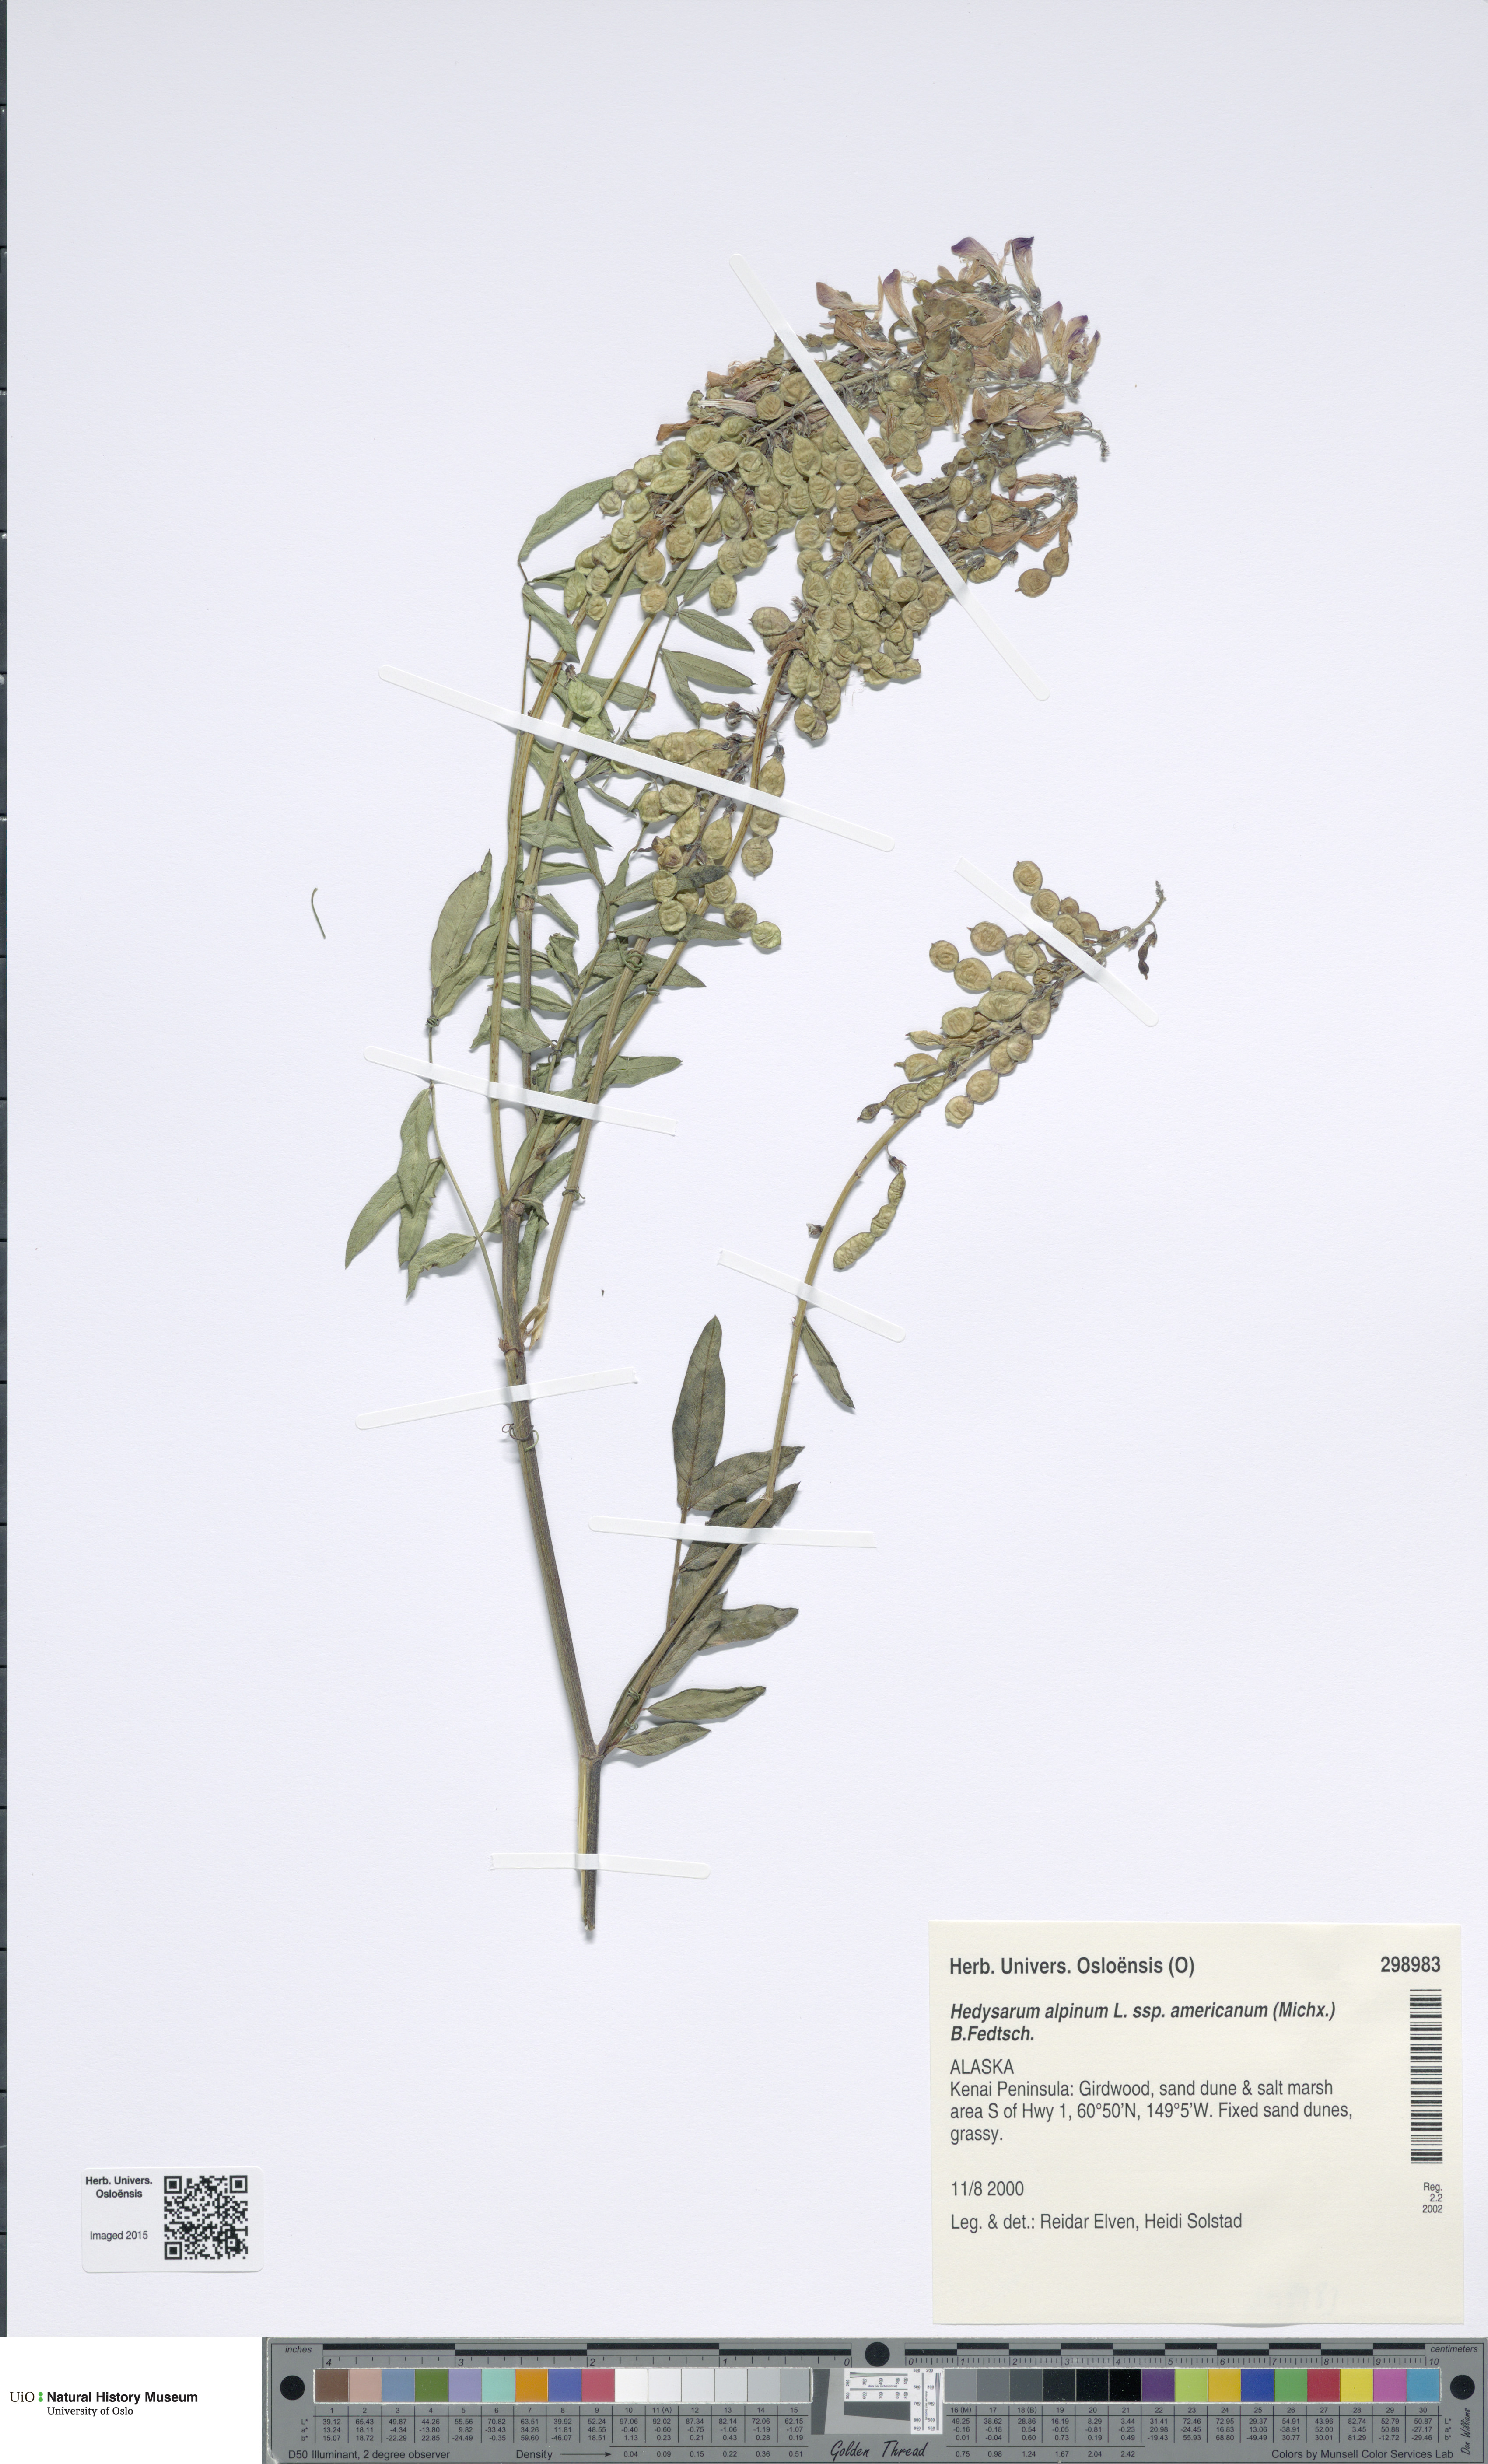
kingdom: Plantae
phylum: Tracheophyta
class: Magnoliopsida
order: Fabales
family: Fabaceae
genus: Hedysarum
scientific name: Hedysarum americanum
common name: Alpine hedysarum
